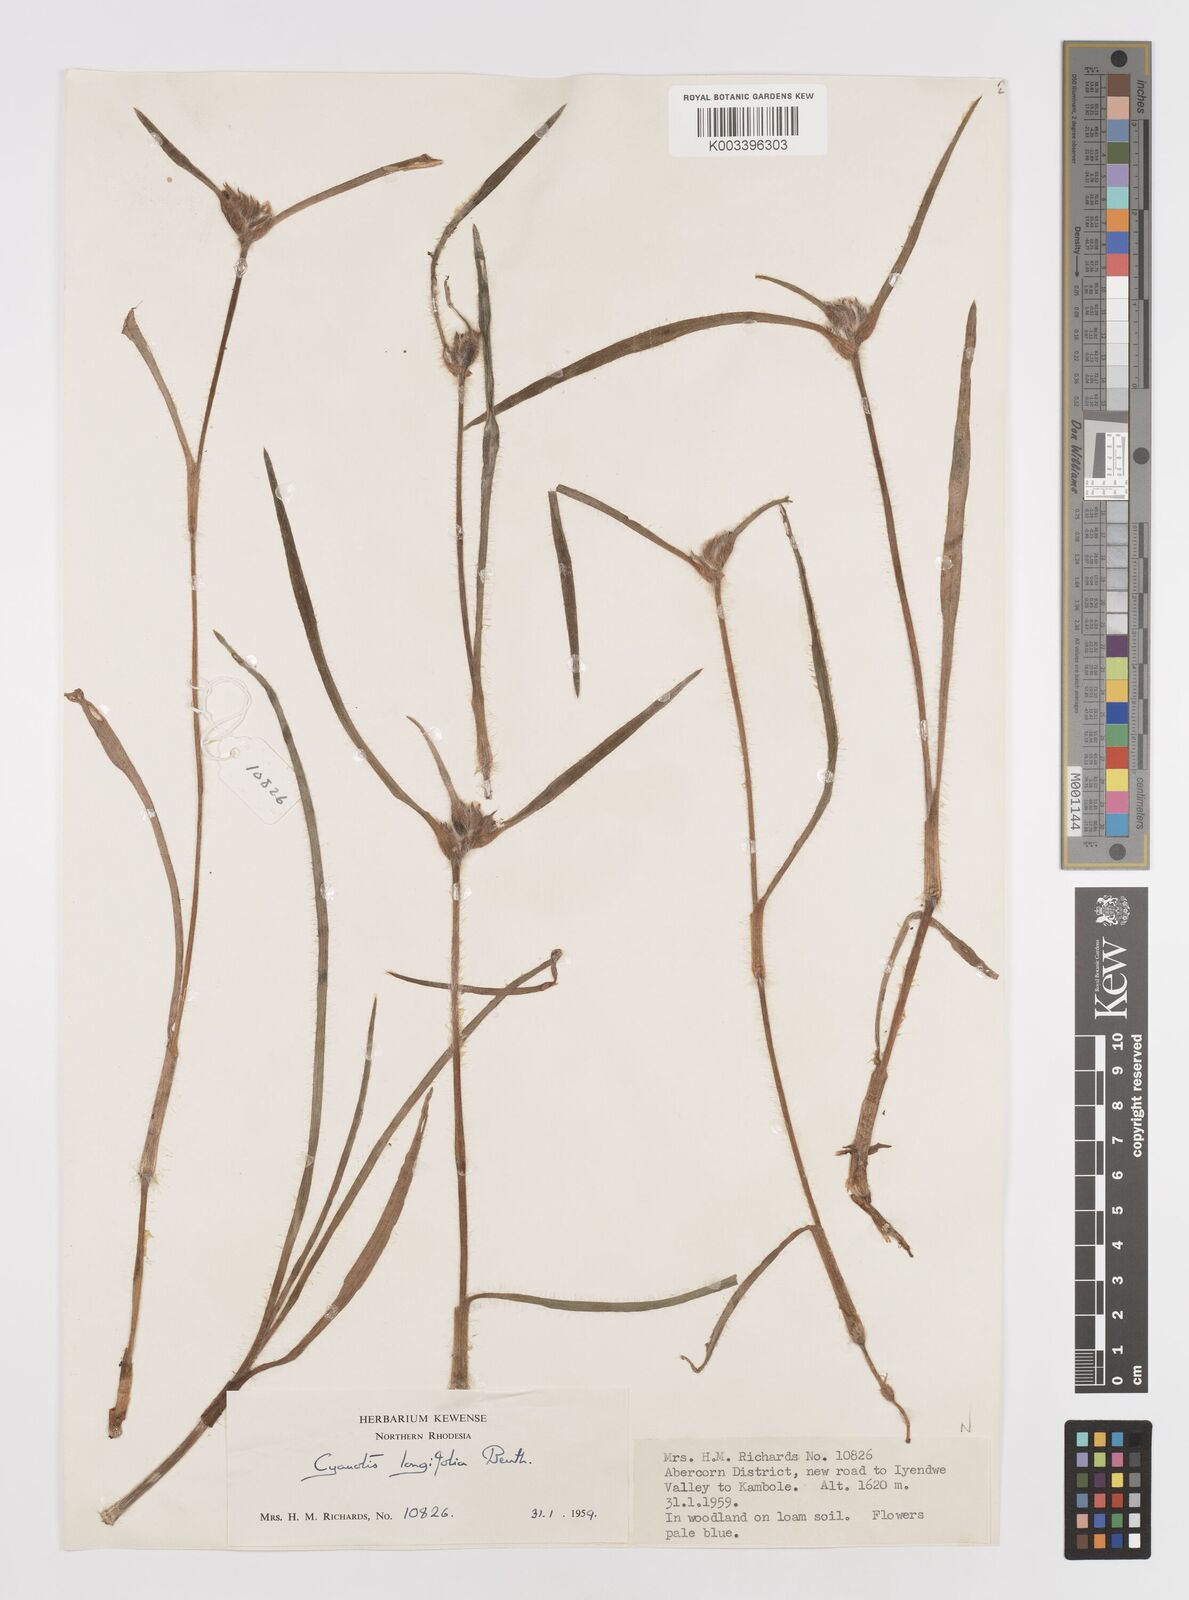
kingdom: Plantae
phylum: Tracheophyta
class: Liliopsida
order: Commelinales
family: Commelinaceae
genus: Cyanotis
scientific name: Cyanotis longifolia
